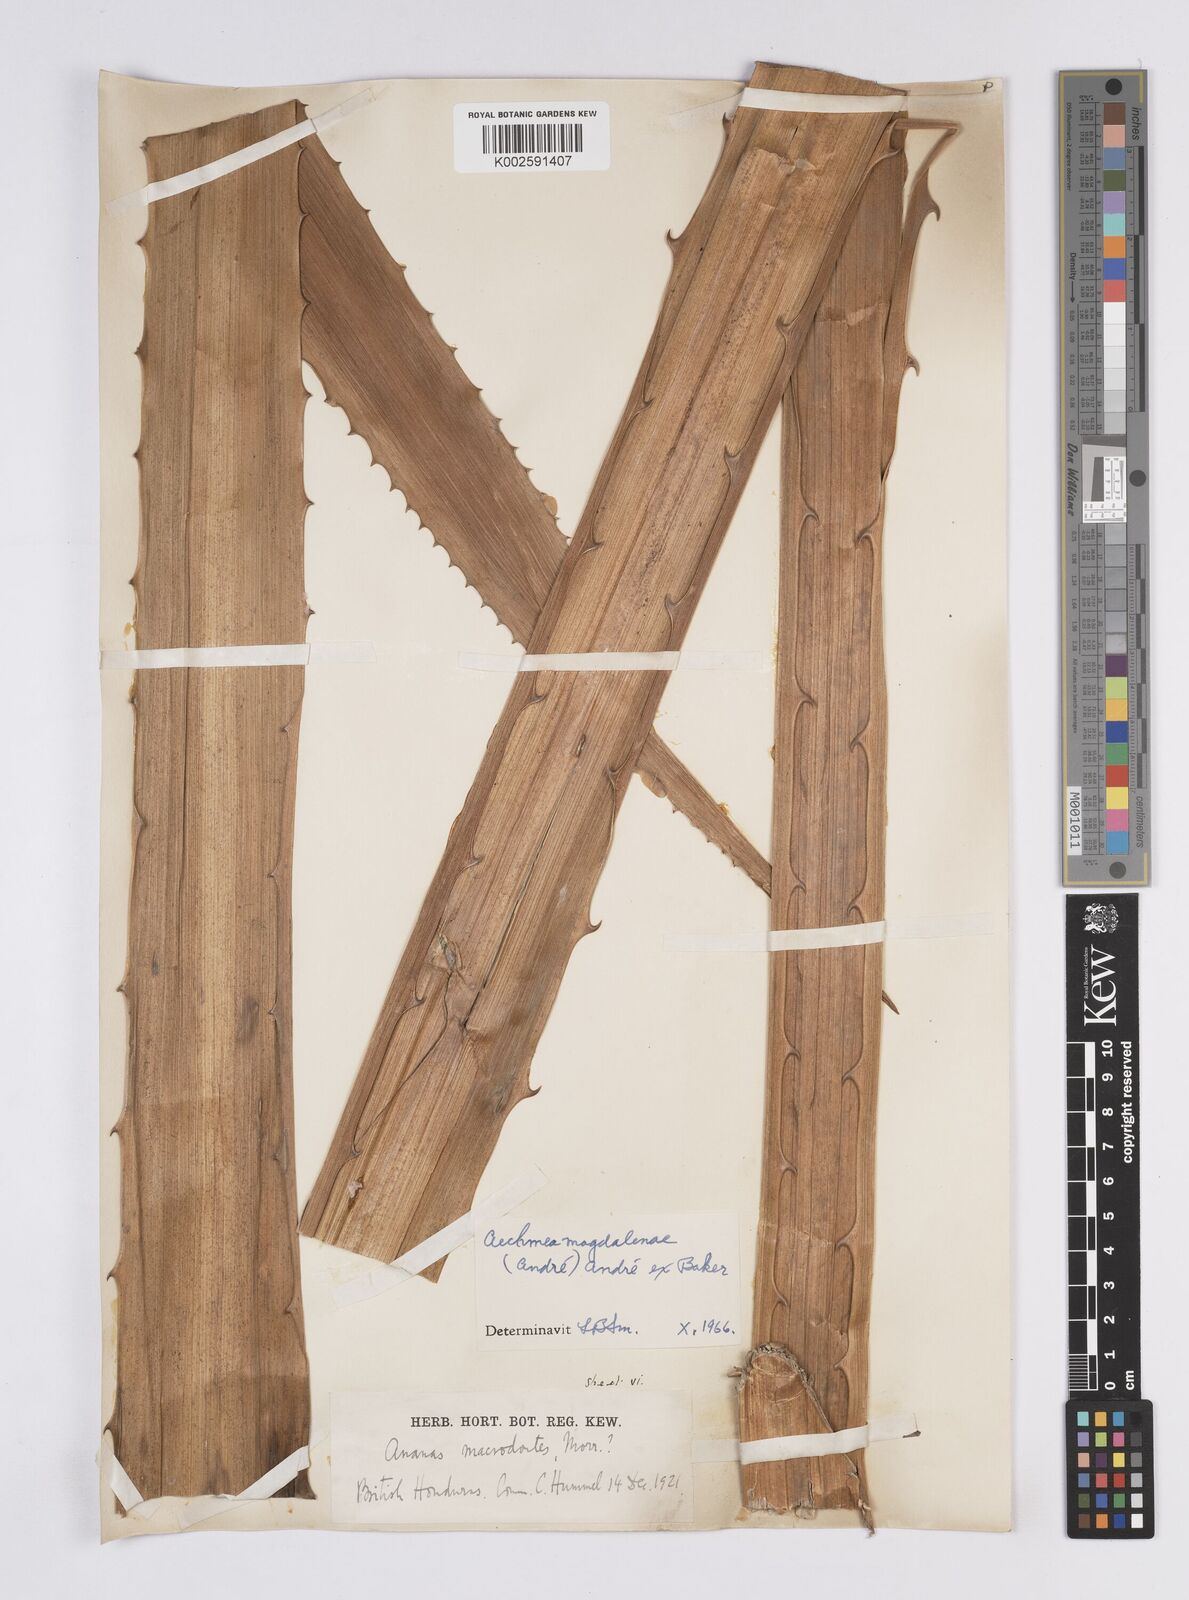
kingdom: Plantae
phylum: Tracheophyta
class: Liliopsida
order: Poales
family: Bromeliaceae
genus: Aechmea
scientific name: Aechmea magdalenae
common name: Arghan
